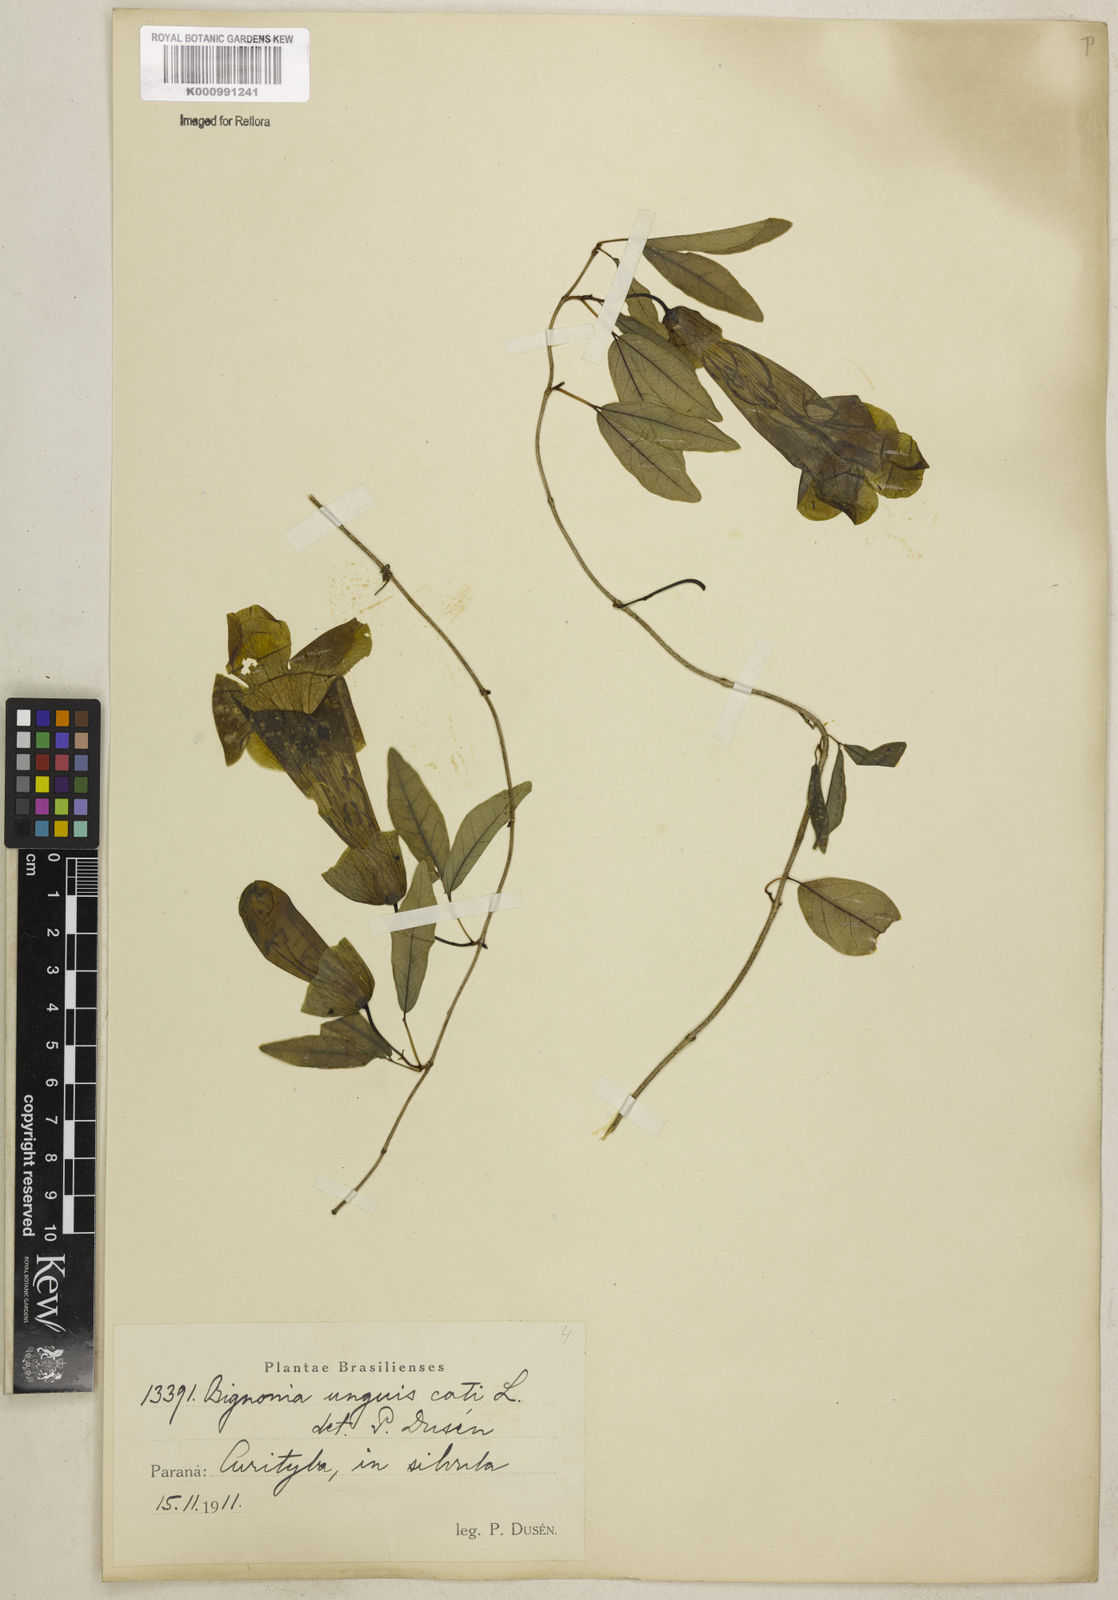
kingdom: Plantae
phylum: Tracheophyta
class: Magnoliopsida
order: Lamiales
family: Bignoniaceae
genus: Dolichandra
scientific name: Dolichandra unguis-cati
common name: Catclaw vine
